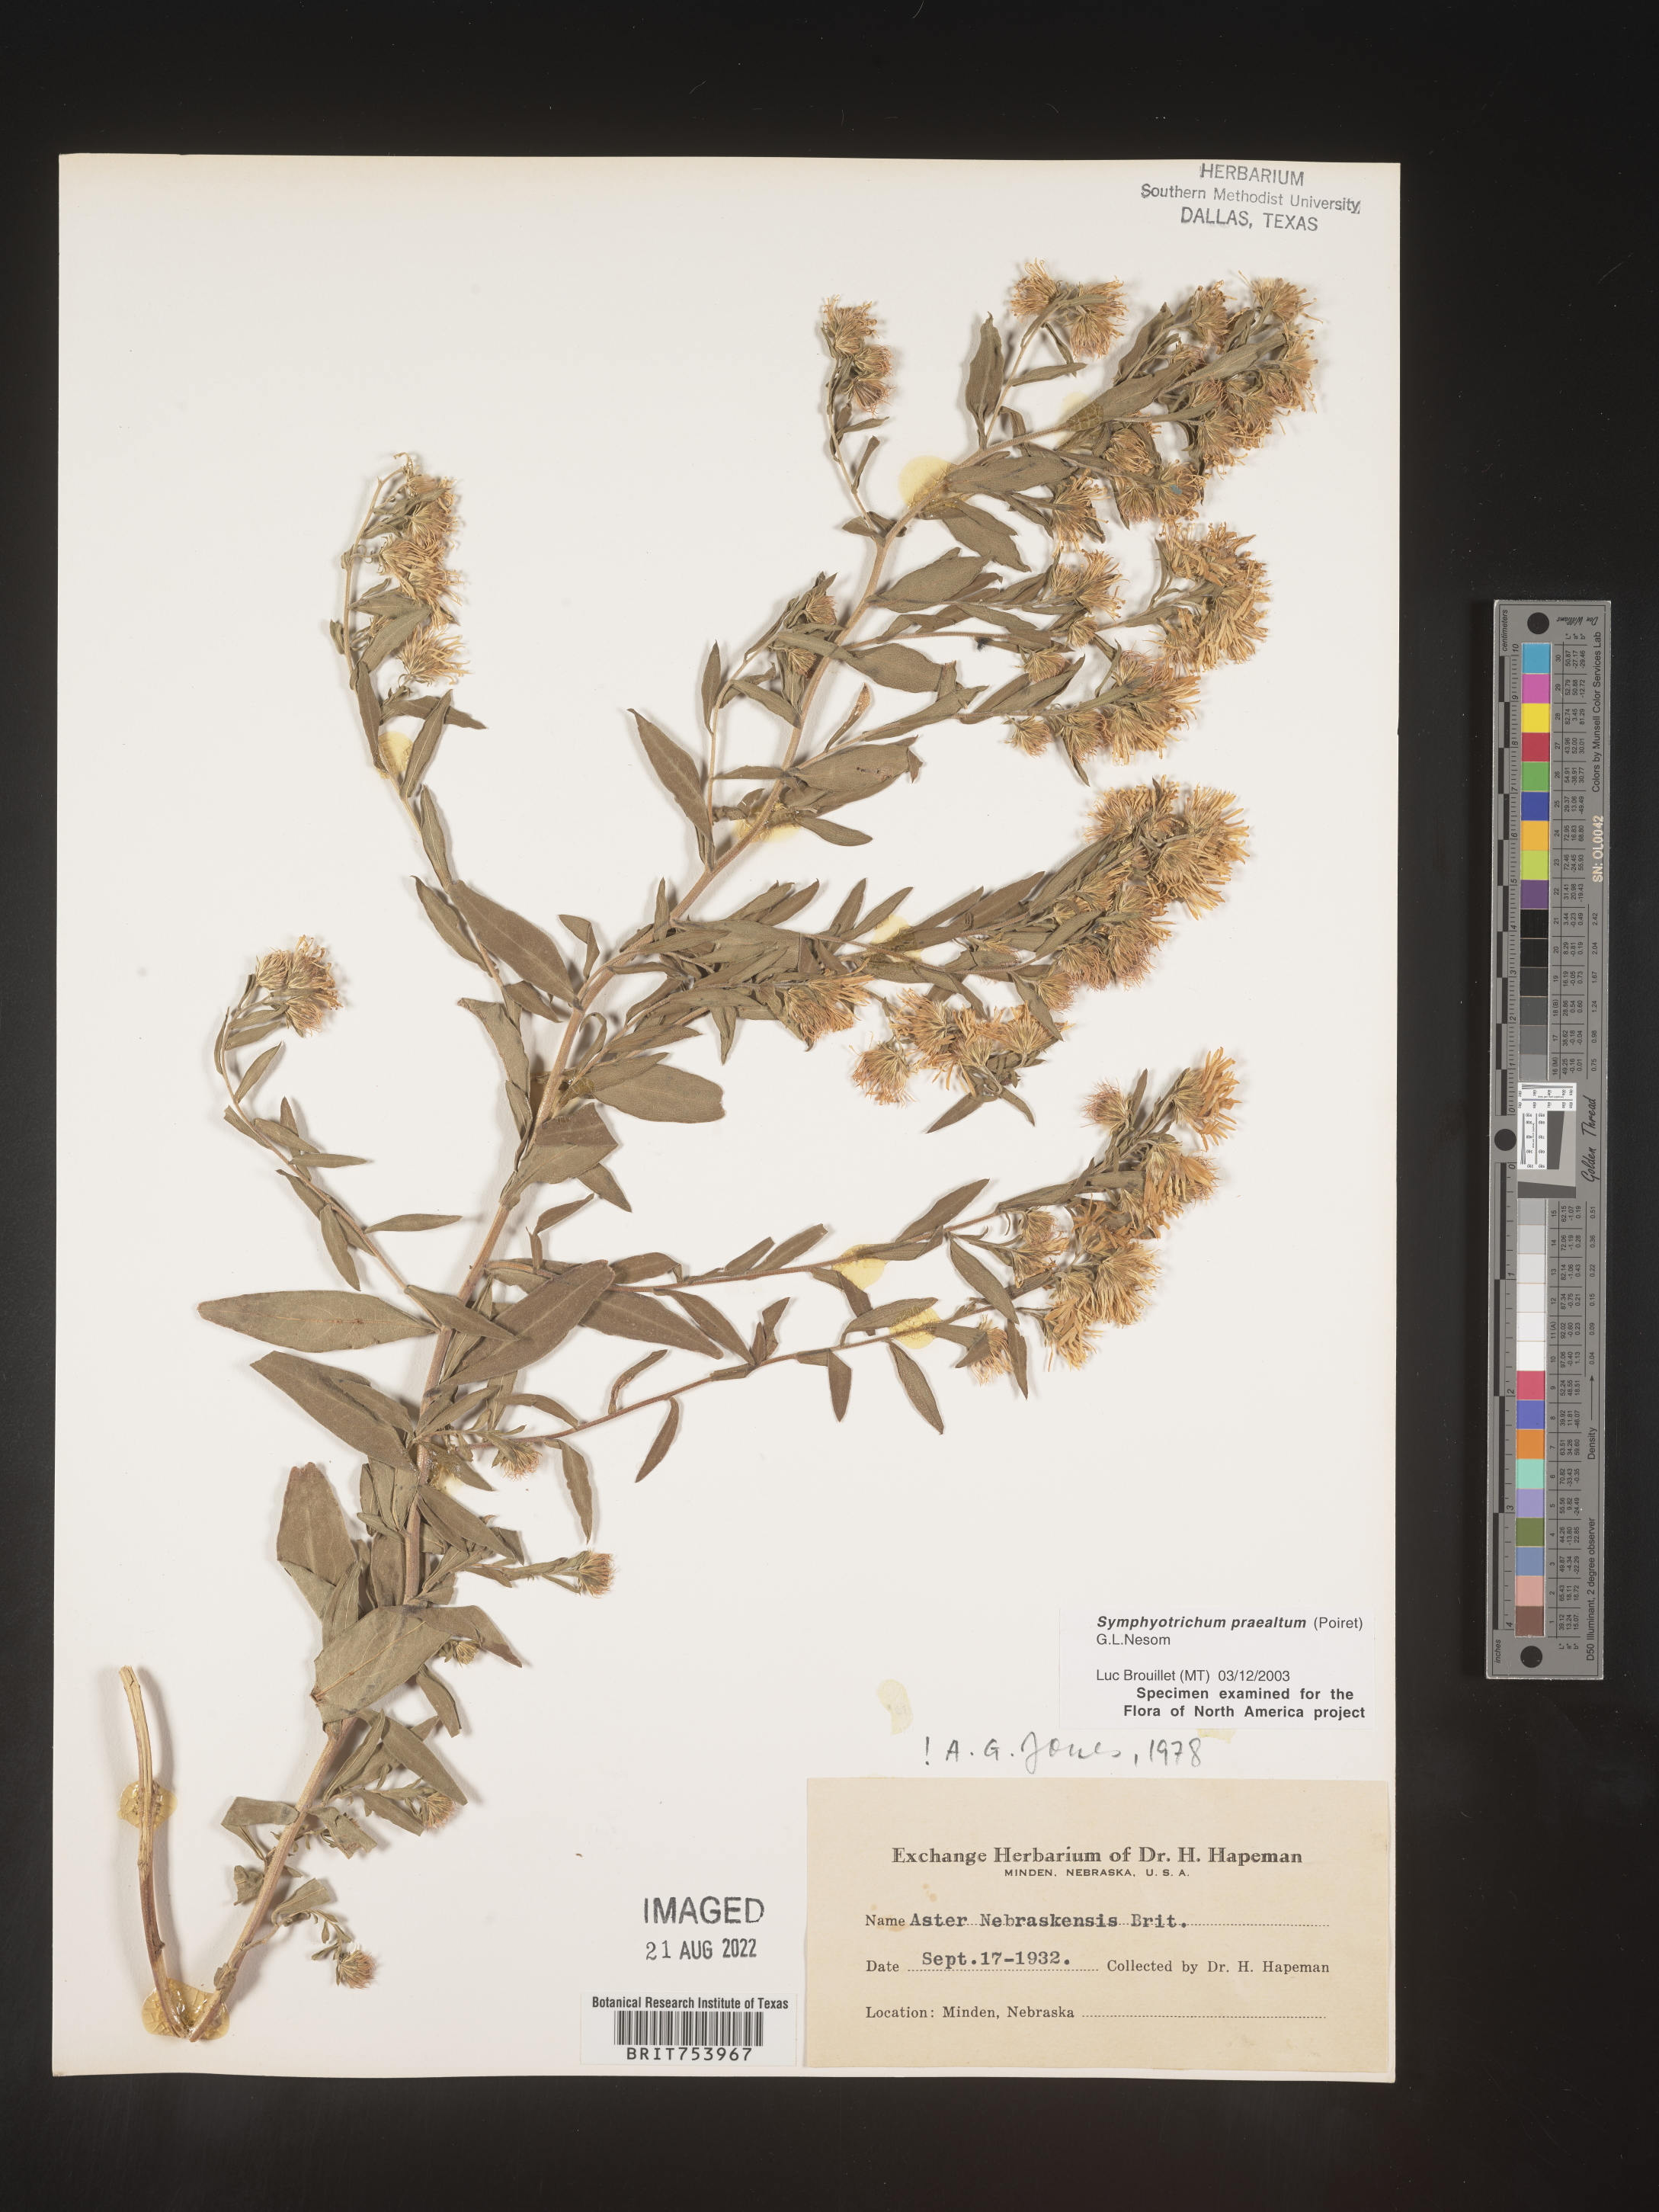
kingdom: Plantae
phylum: Tracheophyta
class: Magnoliopsida
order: Asterales
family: Asteraceae
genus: Symphyotrichum
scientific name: Symphyotrichum praealtum
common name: Willow aster
